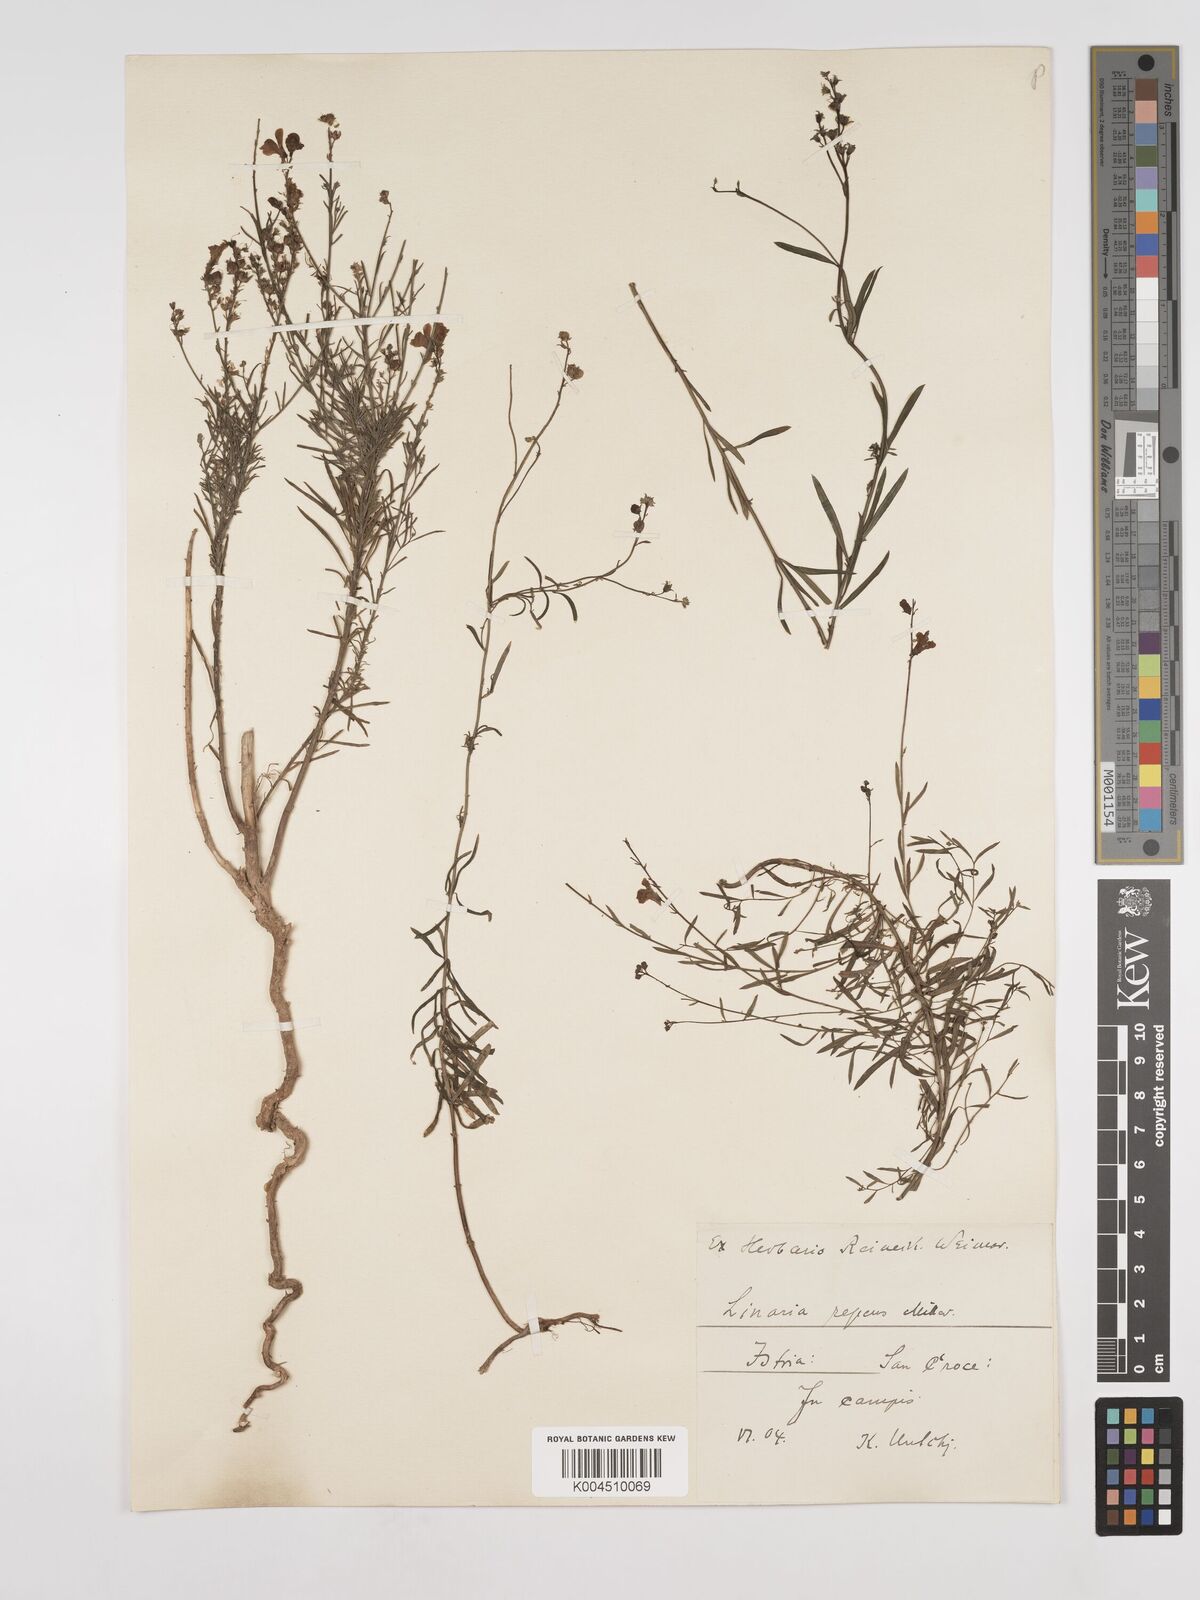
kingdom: Plantae
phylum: Tracheophyta
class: Magnoliopsida
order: Lamiales
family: Plantaginaceae
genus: Linaria
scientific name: Linaria repens
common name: Pale toadflax
